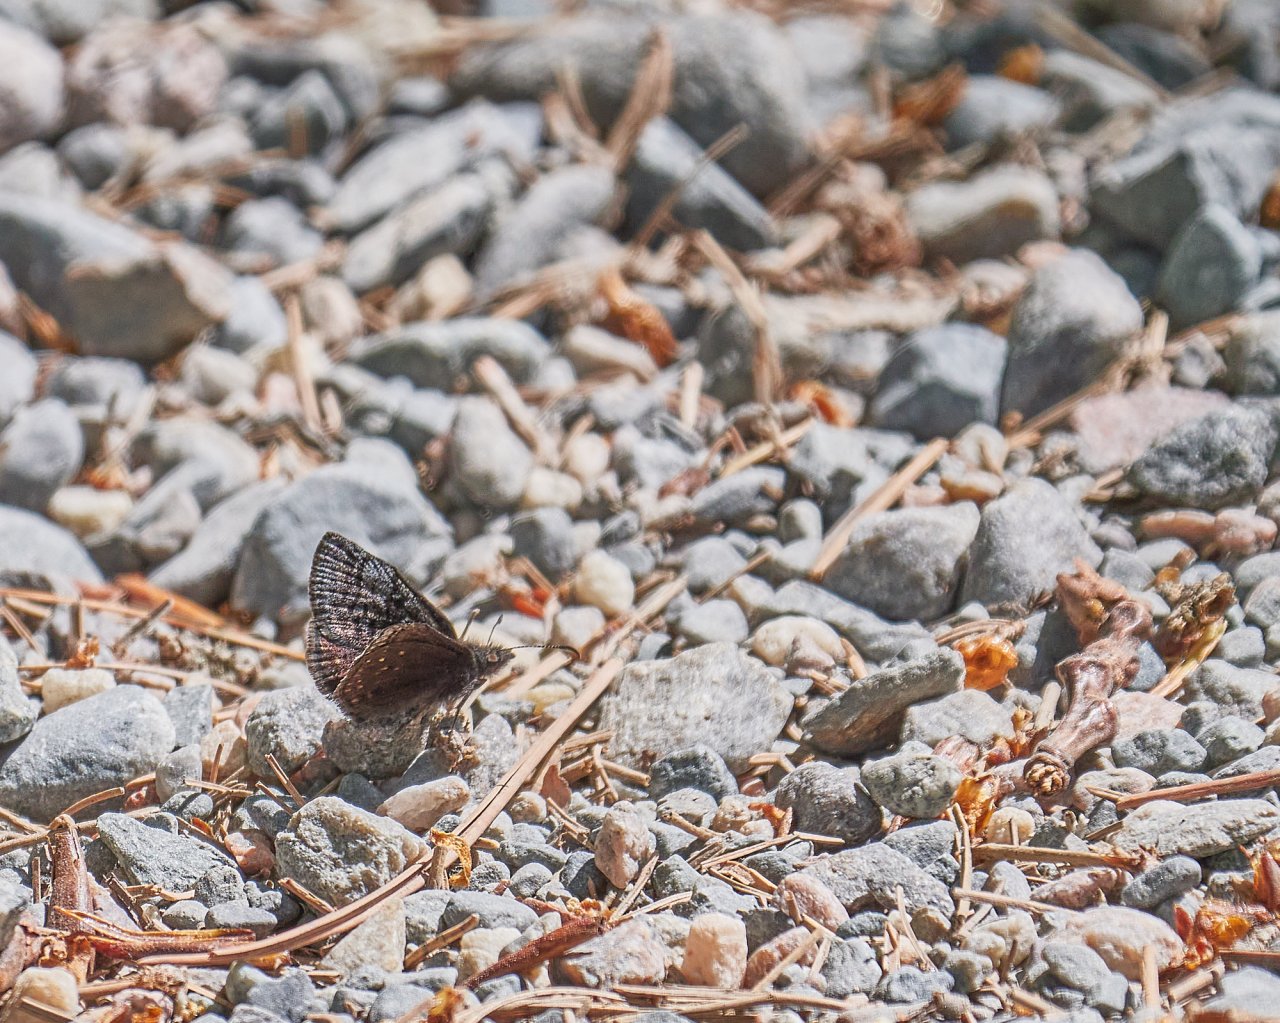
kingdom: Animalia
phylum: Arthropoda
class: Insecta
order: Lepidoptera
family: Hesperiidae
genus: Erynnis
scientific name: Erynnis icelus
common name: Dreamy Duskywing
